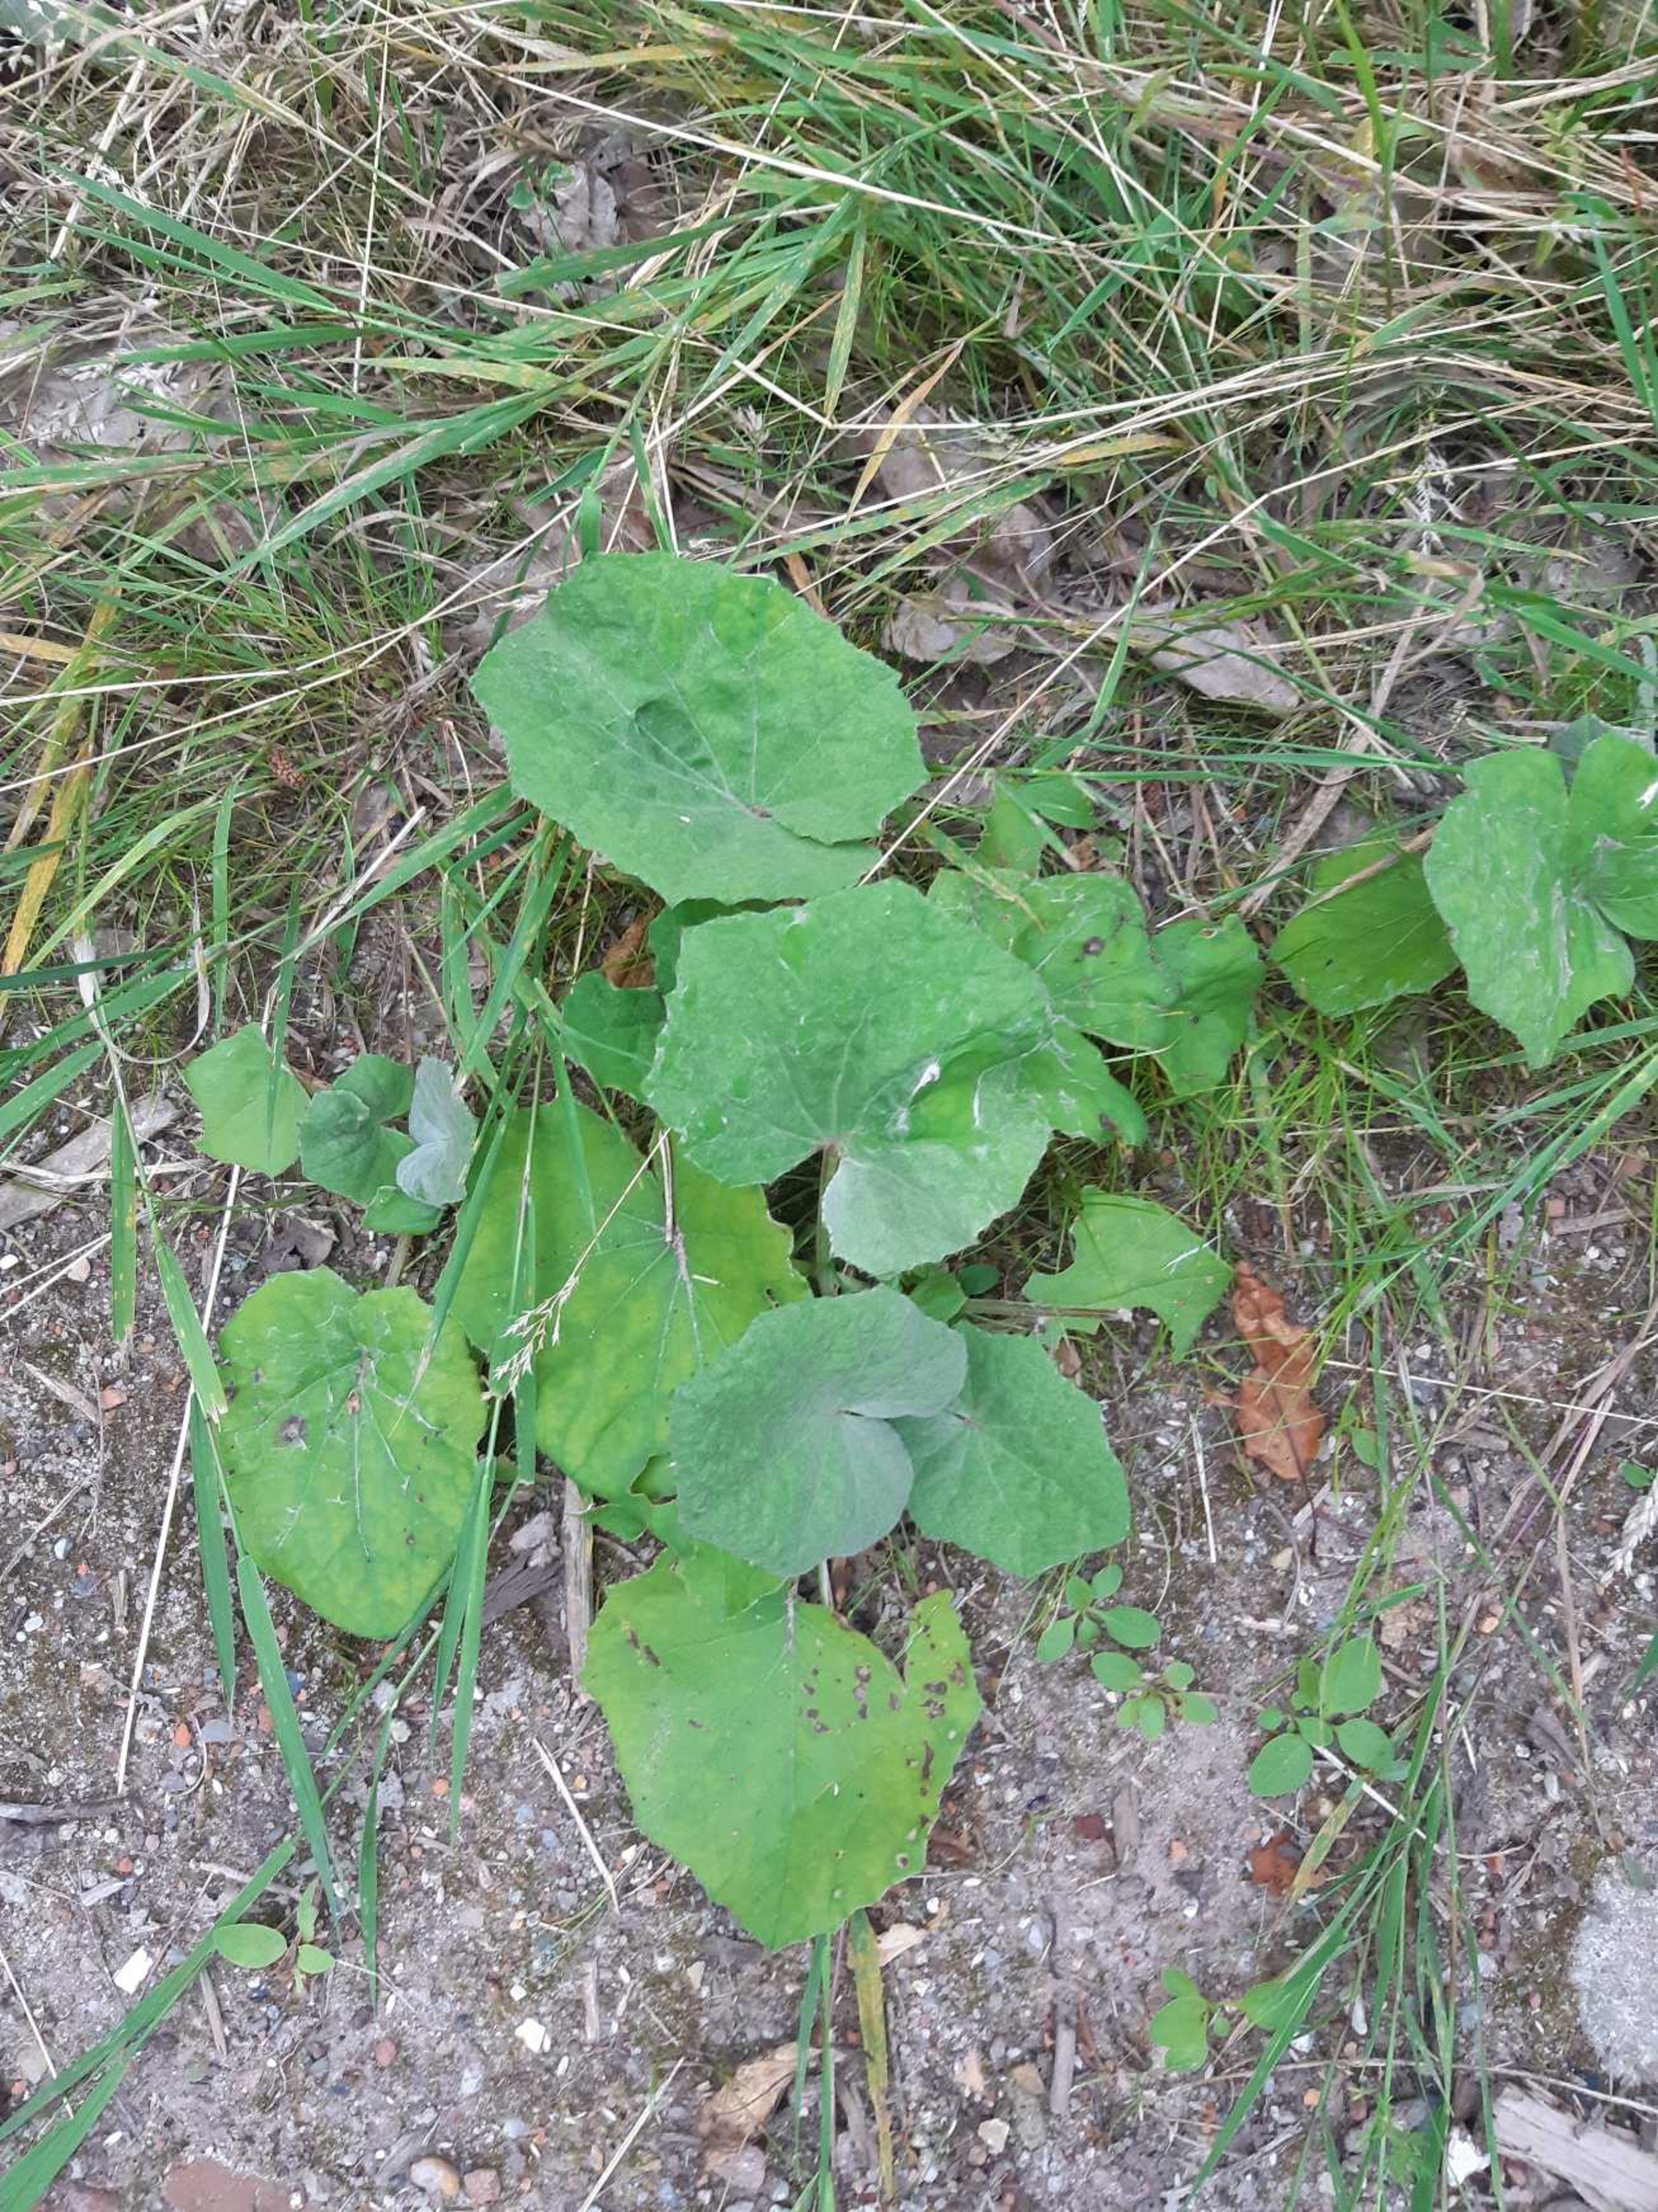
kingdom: Plantae
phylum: Tracheophyta
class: Magnoliopsida
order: Asterales
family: Asteraceae
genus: Tussilago
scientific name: Tussilago farfara
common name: Følfod
